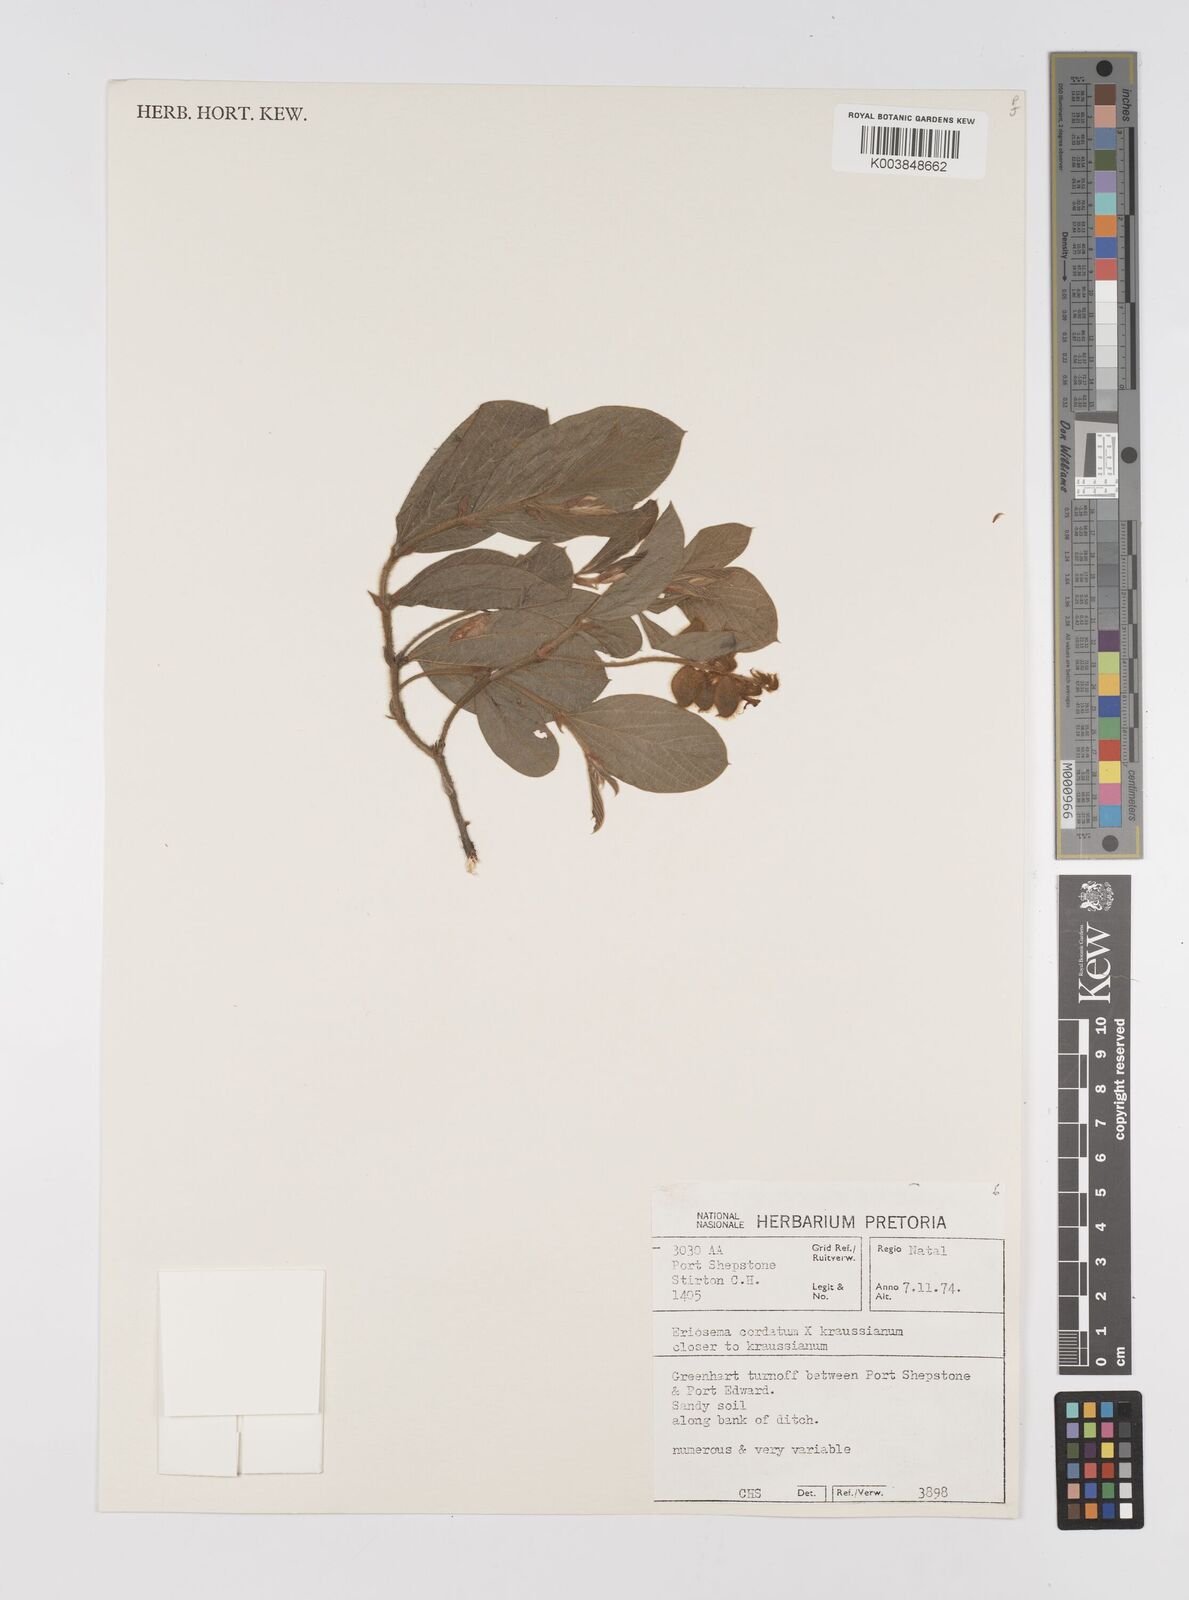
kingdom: Plantae
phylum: Tracheophyta
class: Magnoliopsida
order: Fabales
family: Fabaceae
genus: Eriosema
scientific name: Eriosema cordatum
